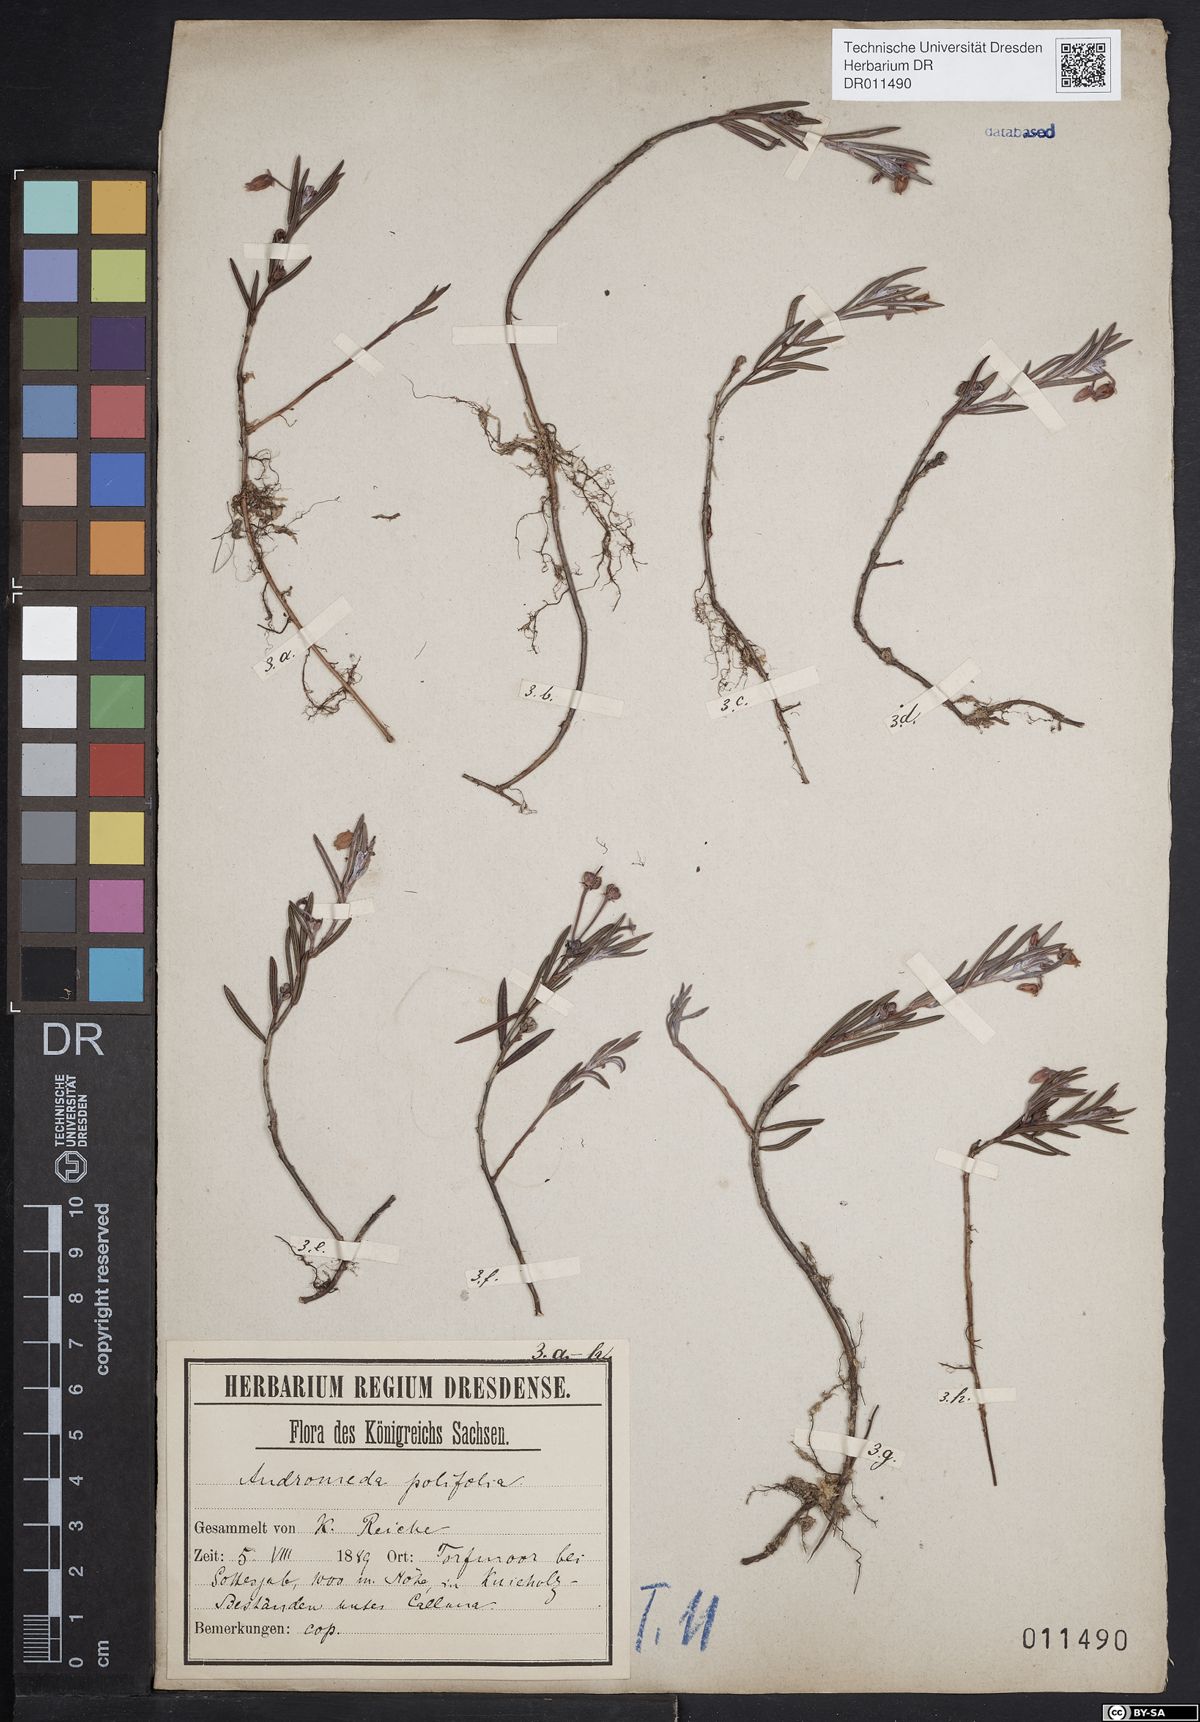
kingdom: Plantae
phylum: Tracheophyta
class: Magnoliopsida
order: Ericales
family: Ericaceae
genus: Andromeda
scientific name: Andromeda polifolia
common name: Bog-rosemary
